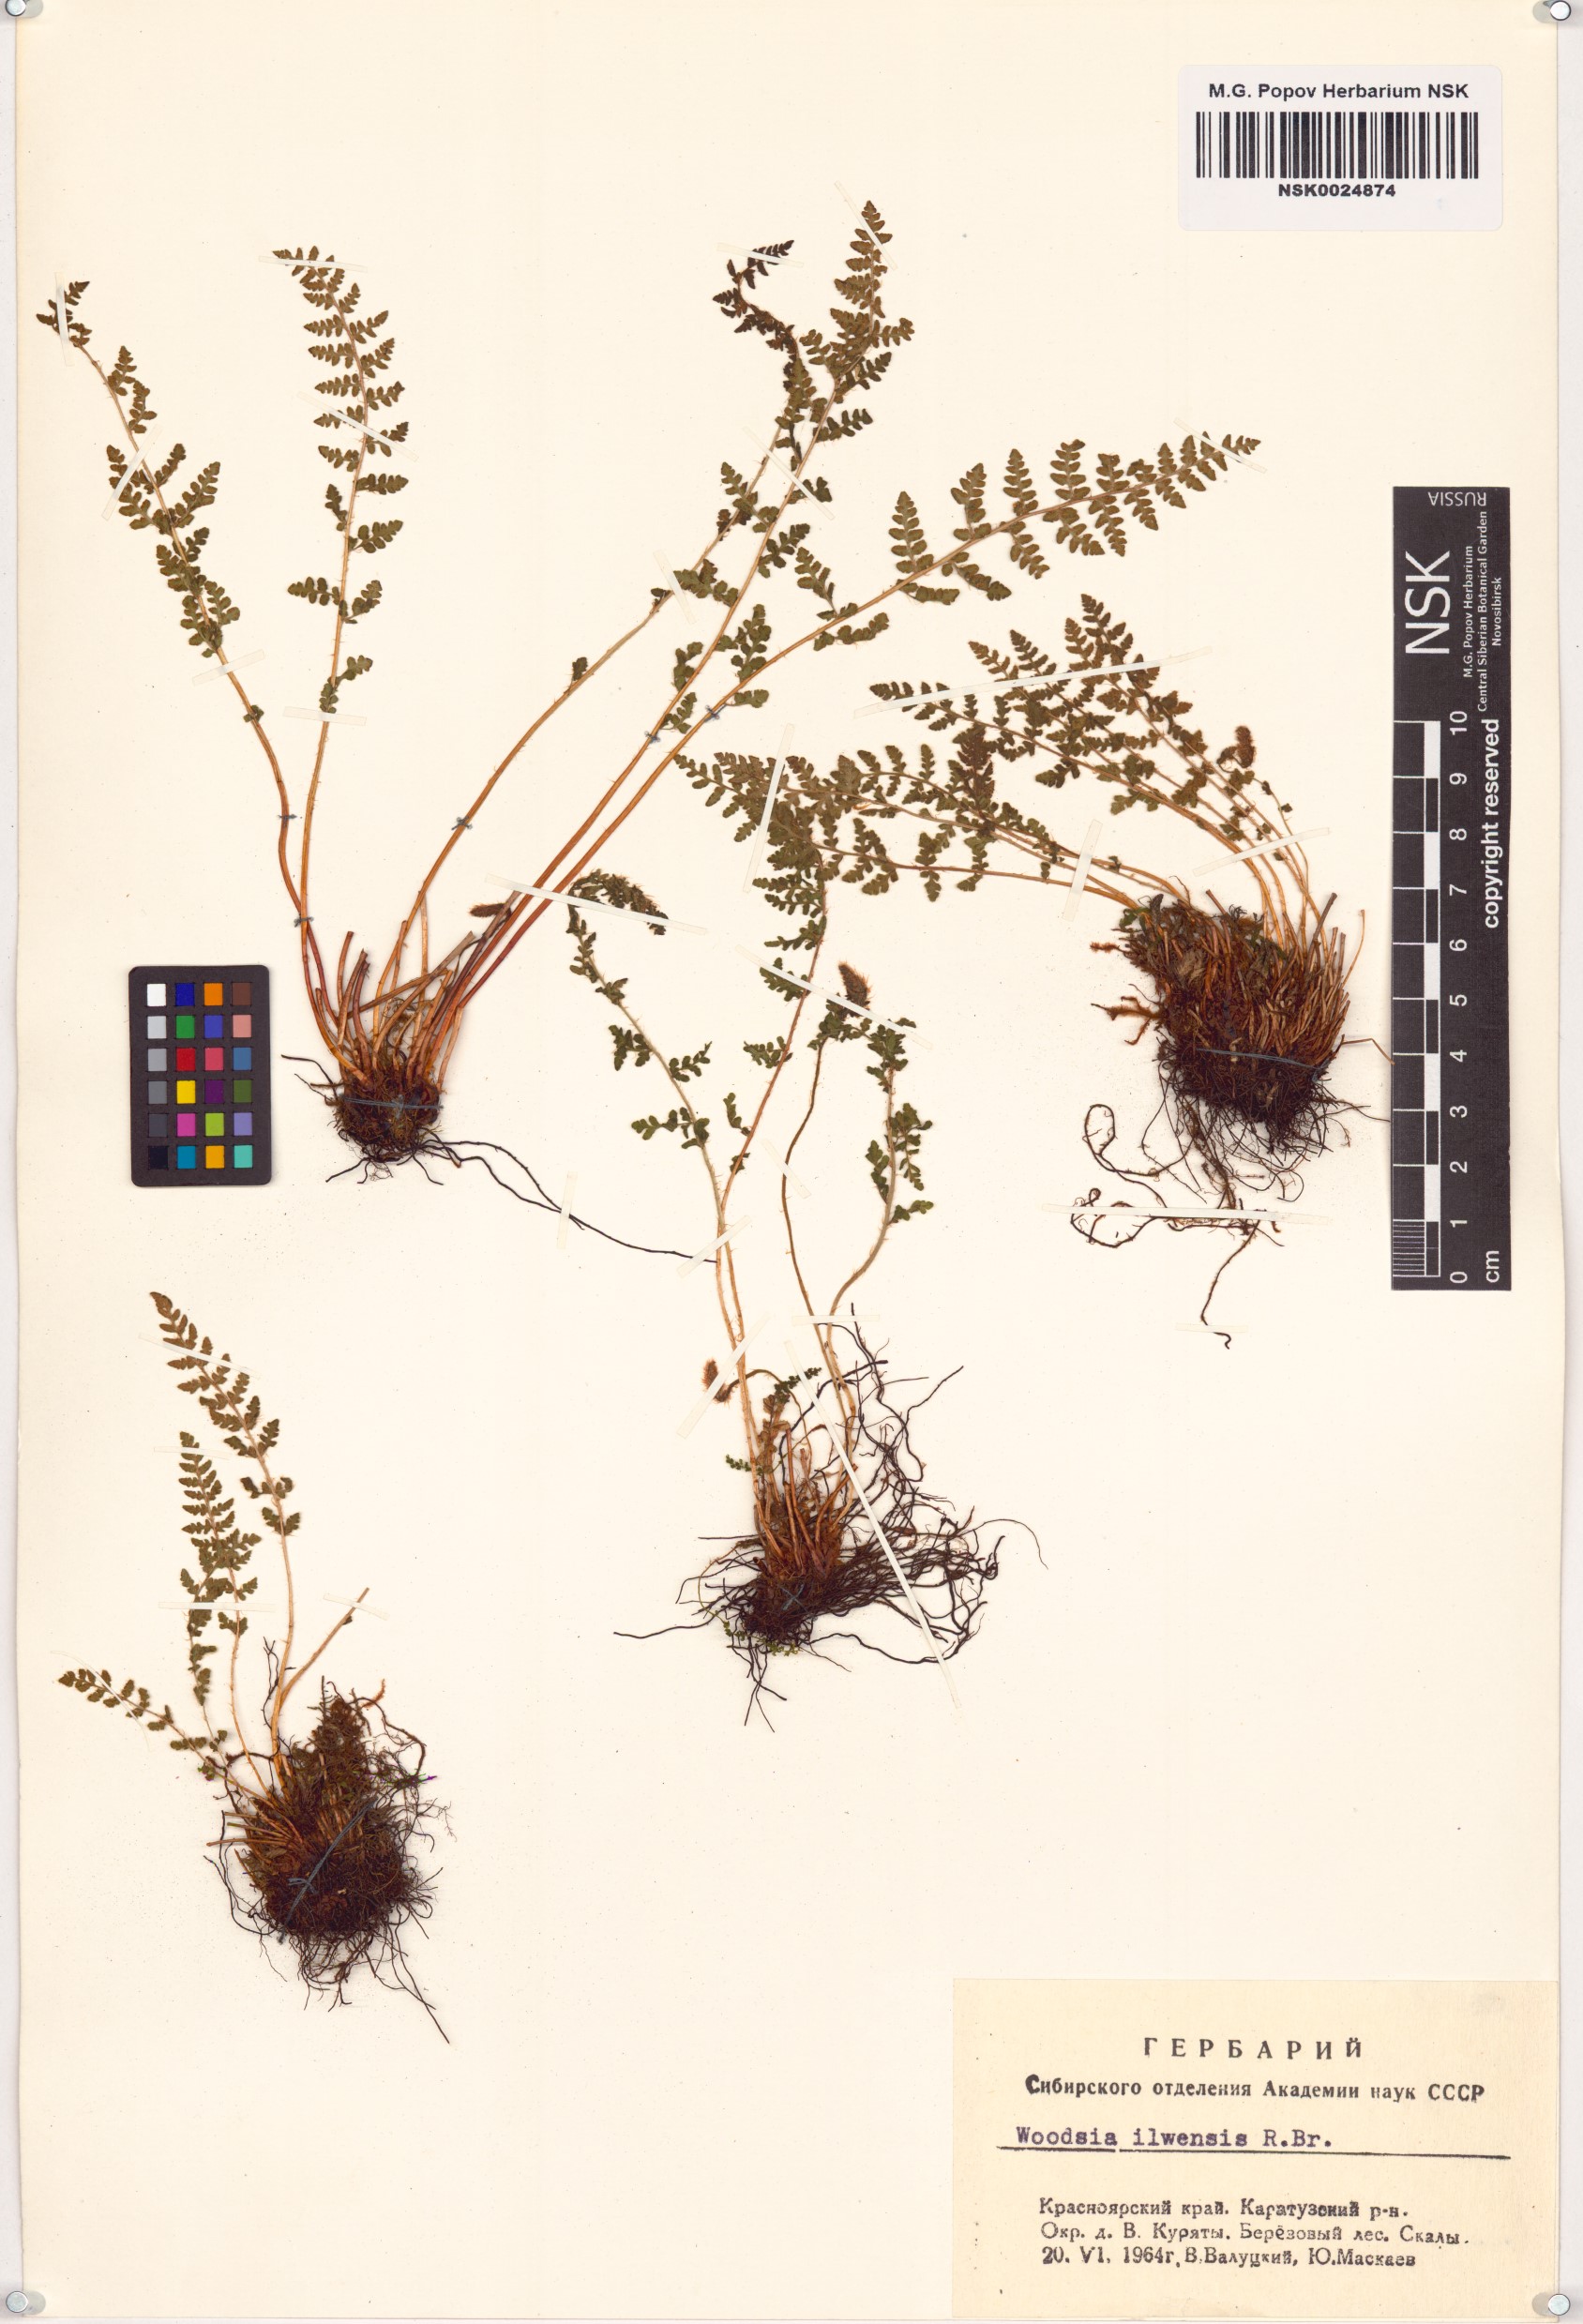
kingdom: Plantae
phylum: Tracheophyta
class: Polypodiopsida
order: Polypodiales
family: Woodsiaceae
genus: Woodsia
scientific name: Woodsia ilvensis
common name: Fragrant woodsia
